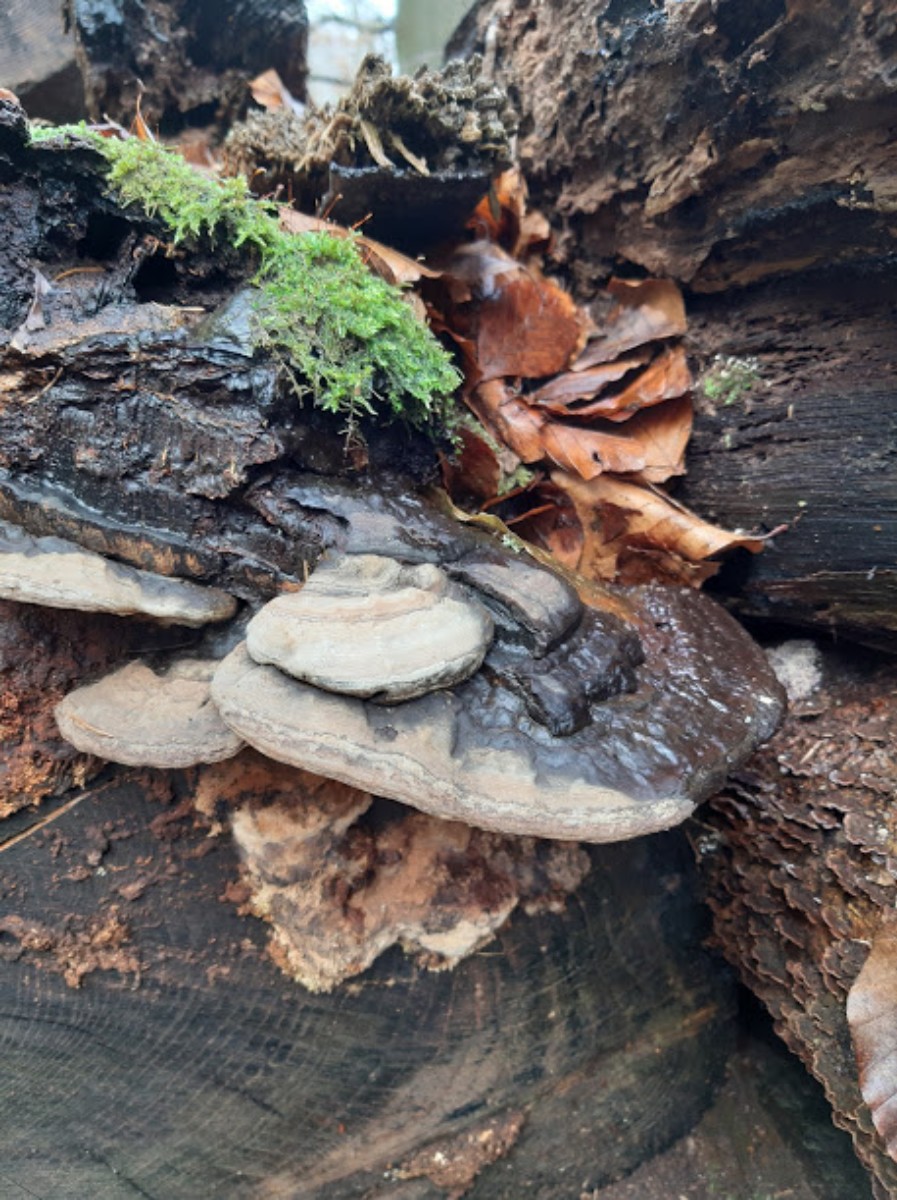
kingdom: Fungi
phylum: Basidiomycota
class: Agaricomycetes
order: Polyporales
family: Polyporaceae
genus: Ganoderma
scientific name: Ganoderma
